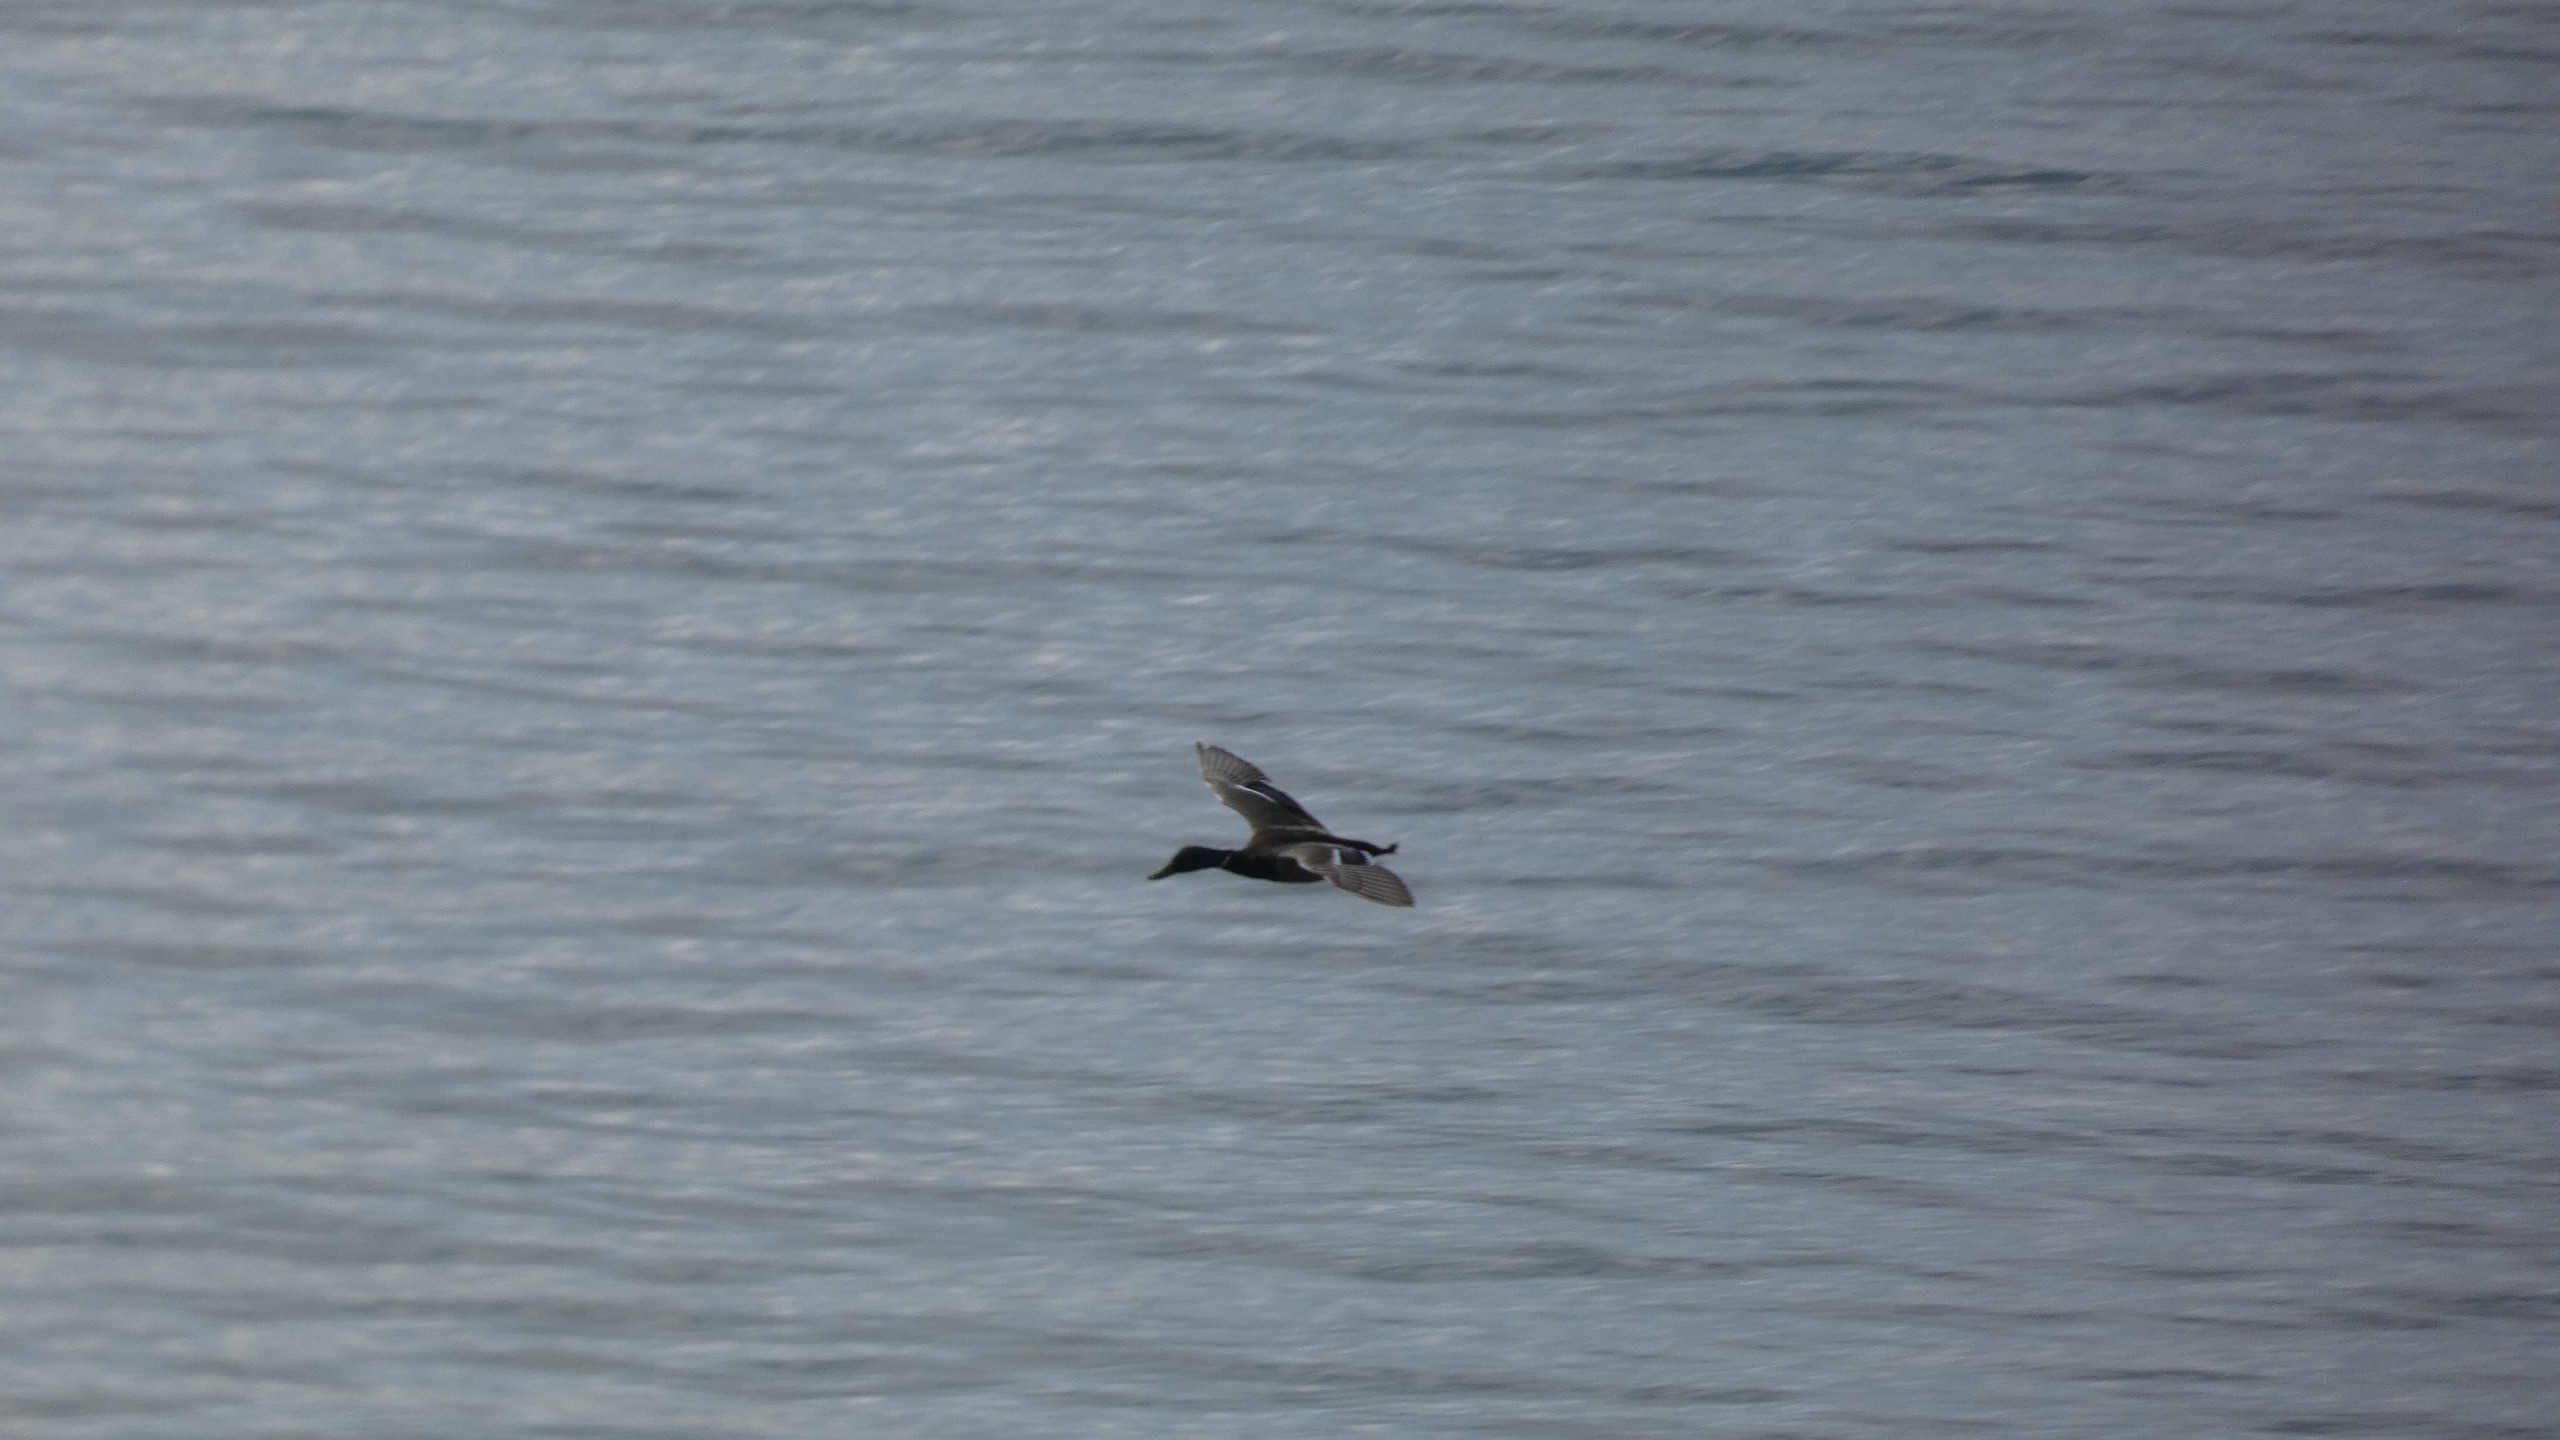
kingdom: Animalia
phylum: Chordata
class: Aves
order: Anseriformes
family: Anatidae
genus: Anas
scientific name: Anas platyrhynchos
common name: Gråand
